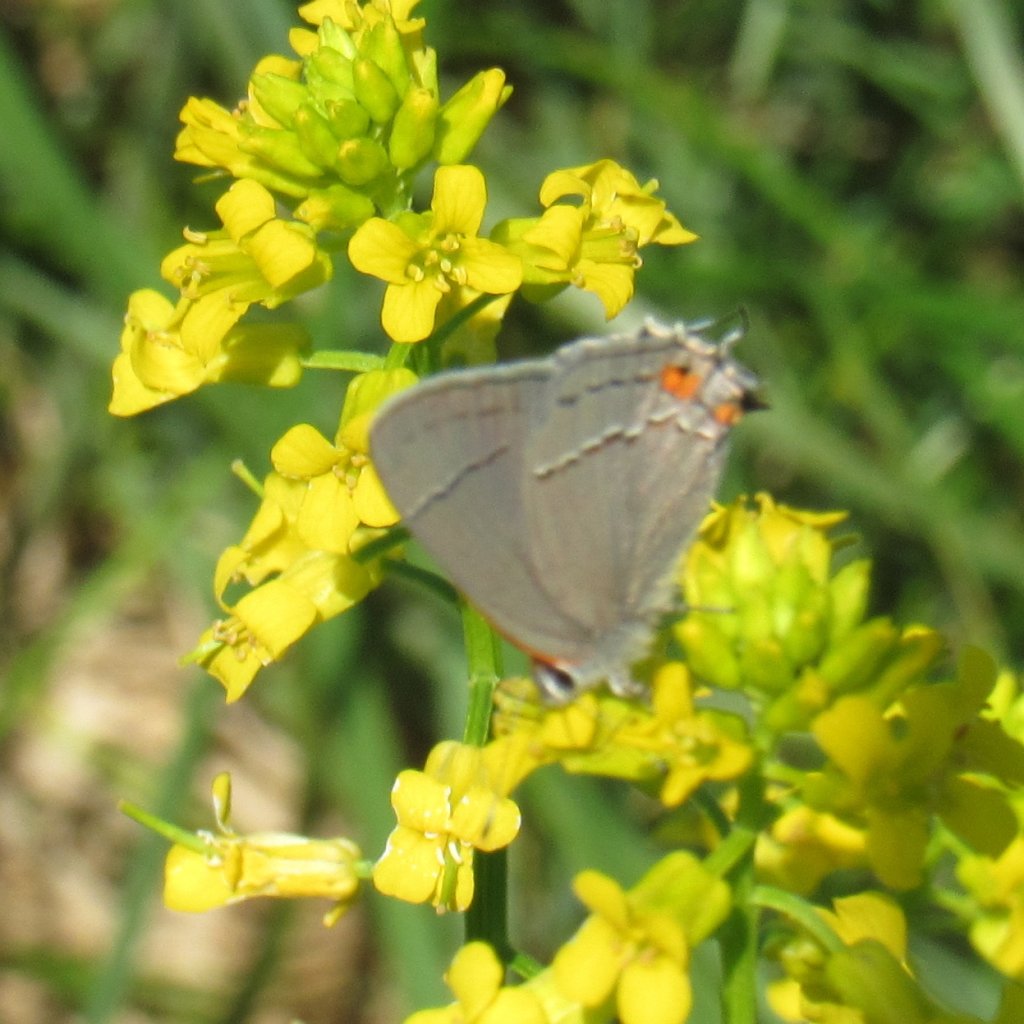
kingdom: Animalia
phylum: Arthropoda
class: Insecta
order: Lepidoptera
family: Lycaenidae
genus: Strymon
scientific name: Strymon melinus
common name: Gray Hairstreak
